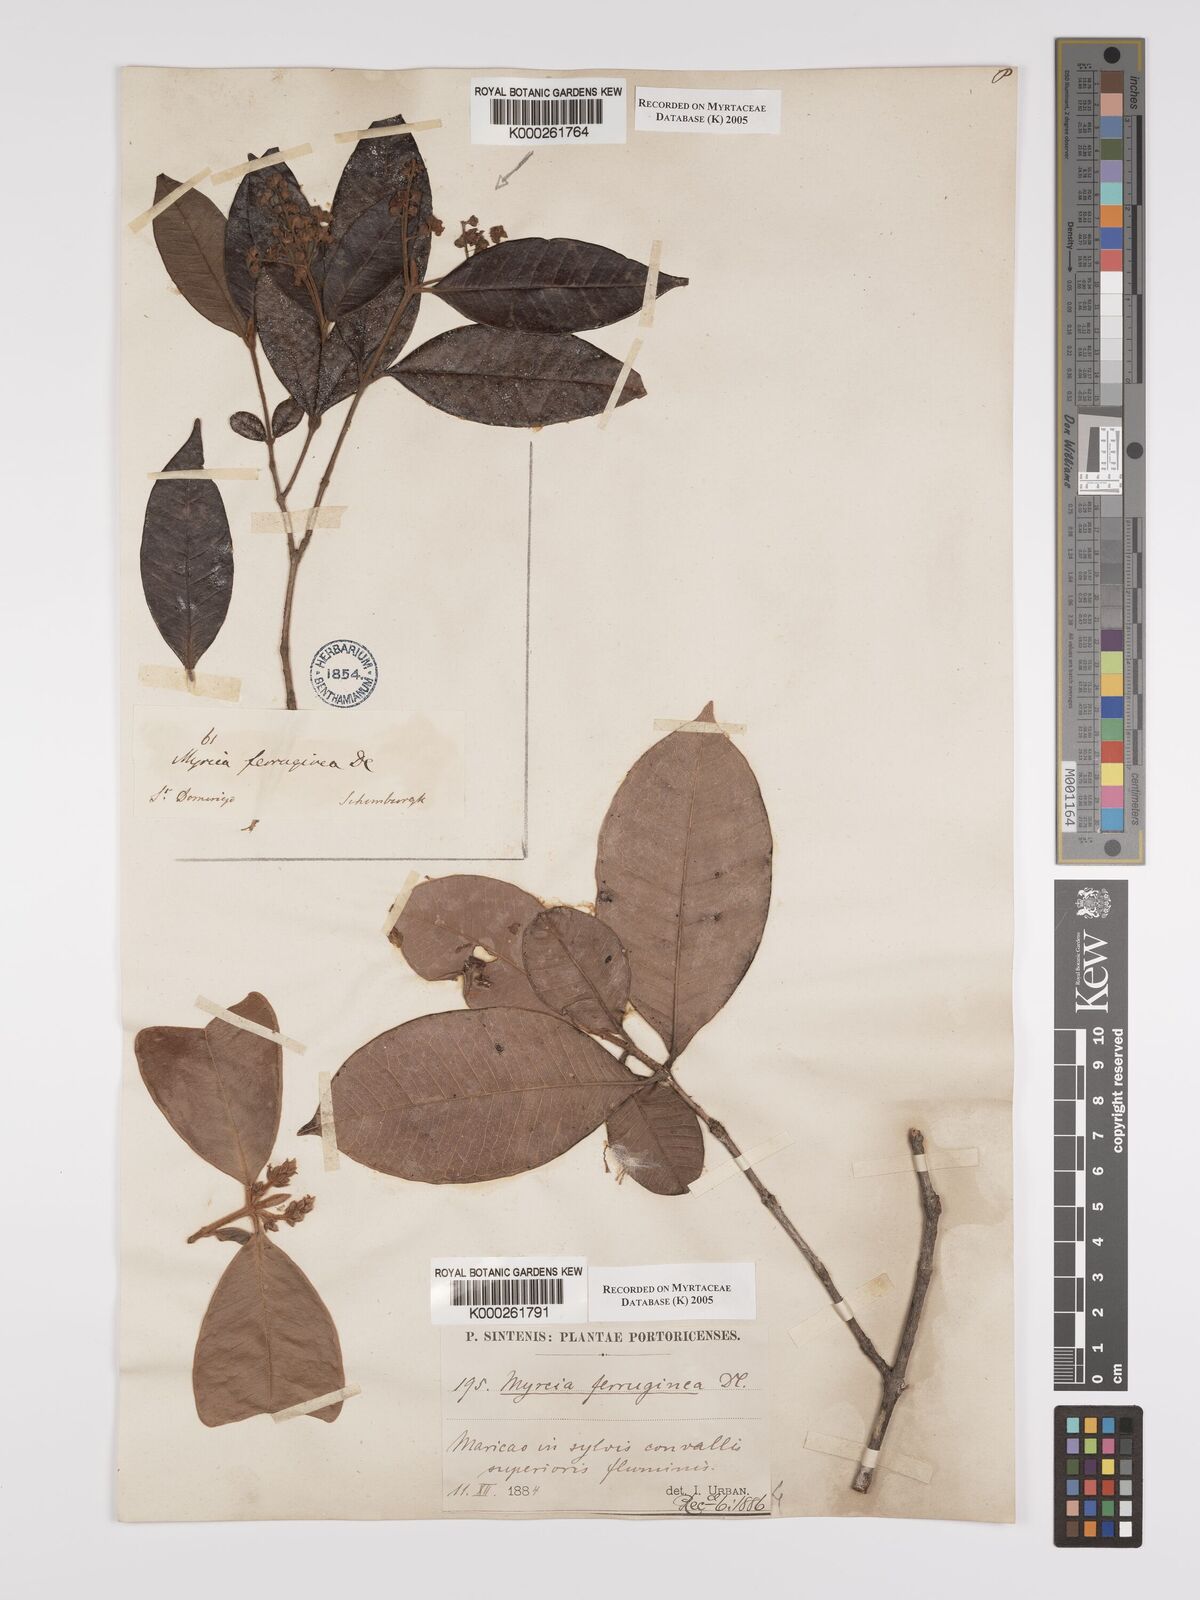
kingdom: Plantae
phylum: Tracheophyta
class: Magnoliopsida
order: Myrtales
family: Myrtaceae
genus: Myrcia
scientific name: Myrcia ferruginea
